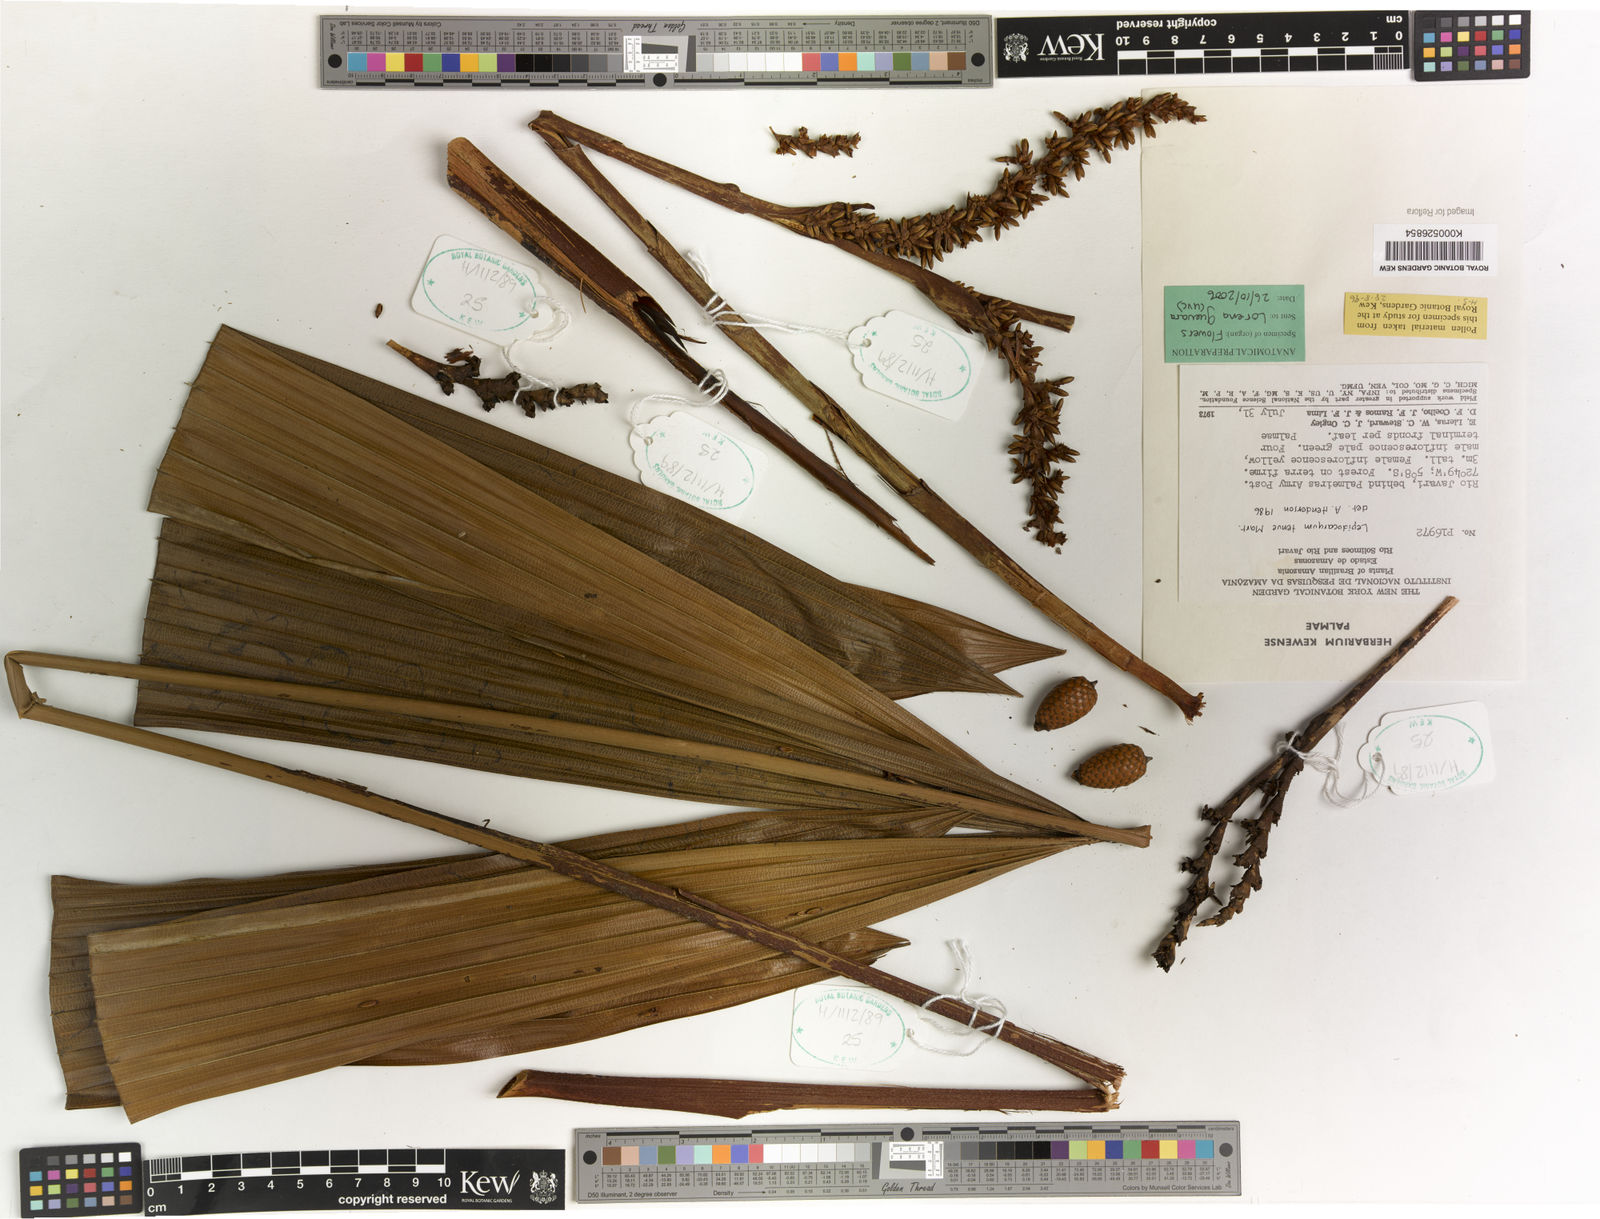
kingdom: Plantae
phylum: Tracheophyta
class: Liliopsida
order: Arecales
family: Arecaceae
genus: Lepidocaryum
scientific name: Lepidocaryum tenue
